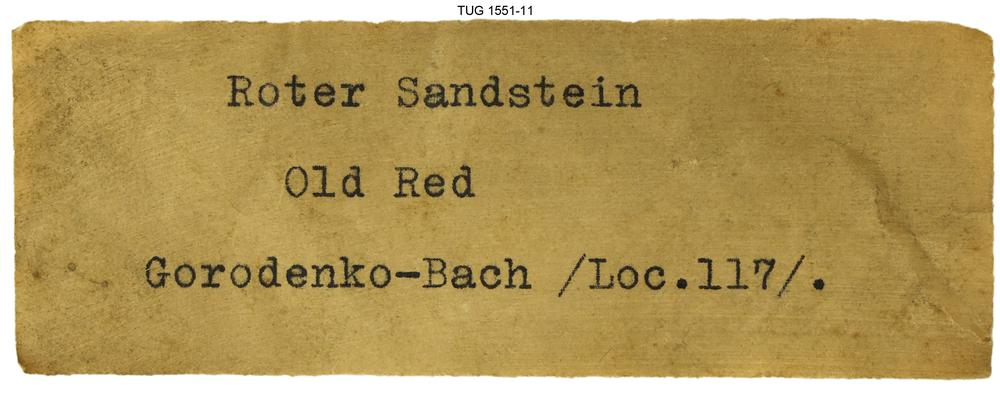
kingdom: Animalia
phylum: Chordata
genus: Schizosteus
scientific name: Schizosteus
